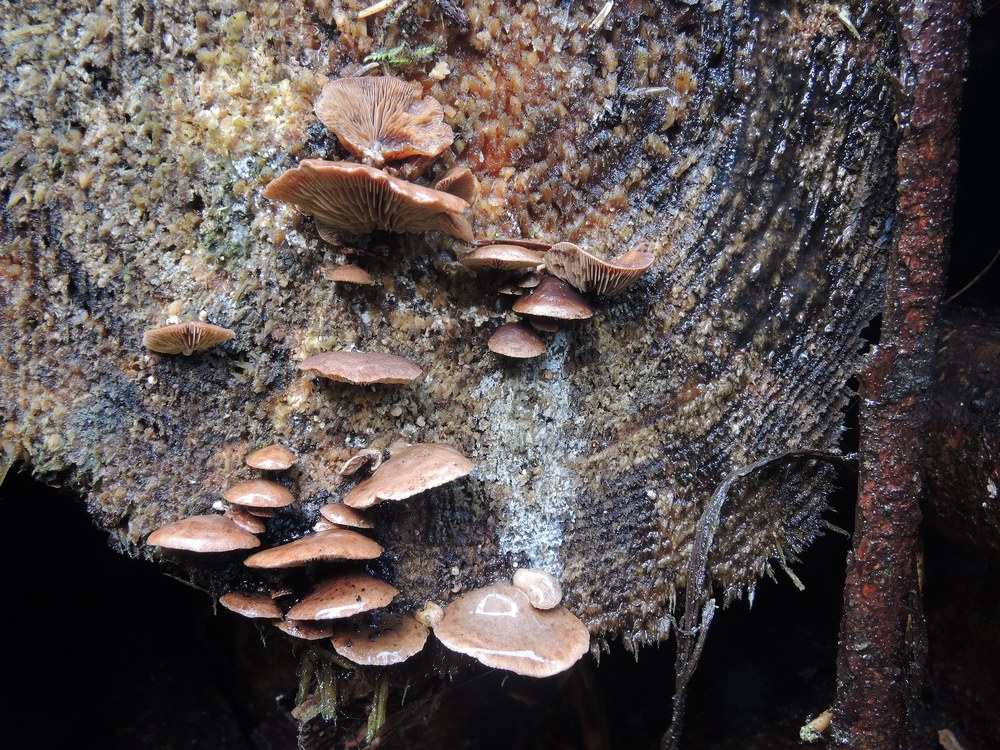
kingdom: Fungi
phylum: Basidiomycota
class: Agaricomycetes
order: Agaricales
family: Strophariaceae
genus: Deconica
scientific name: Deconica horizontalis
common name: ved-stråhat
